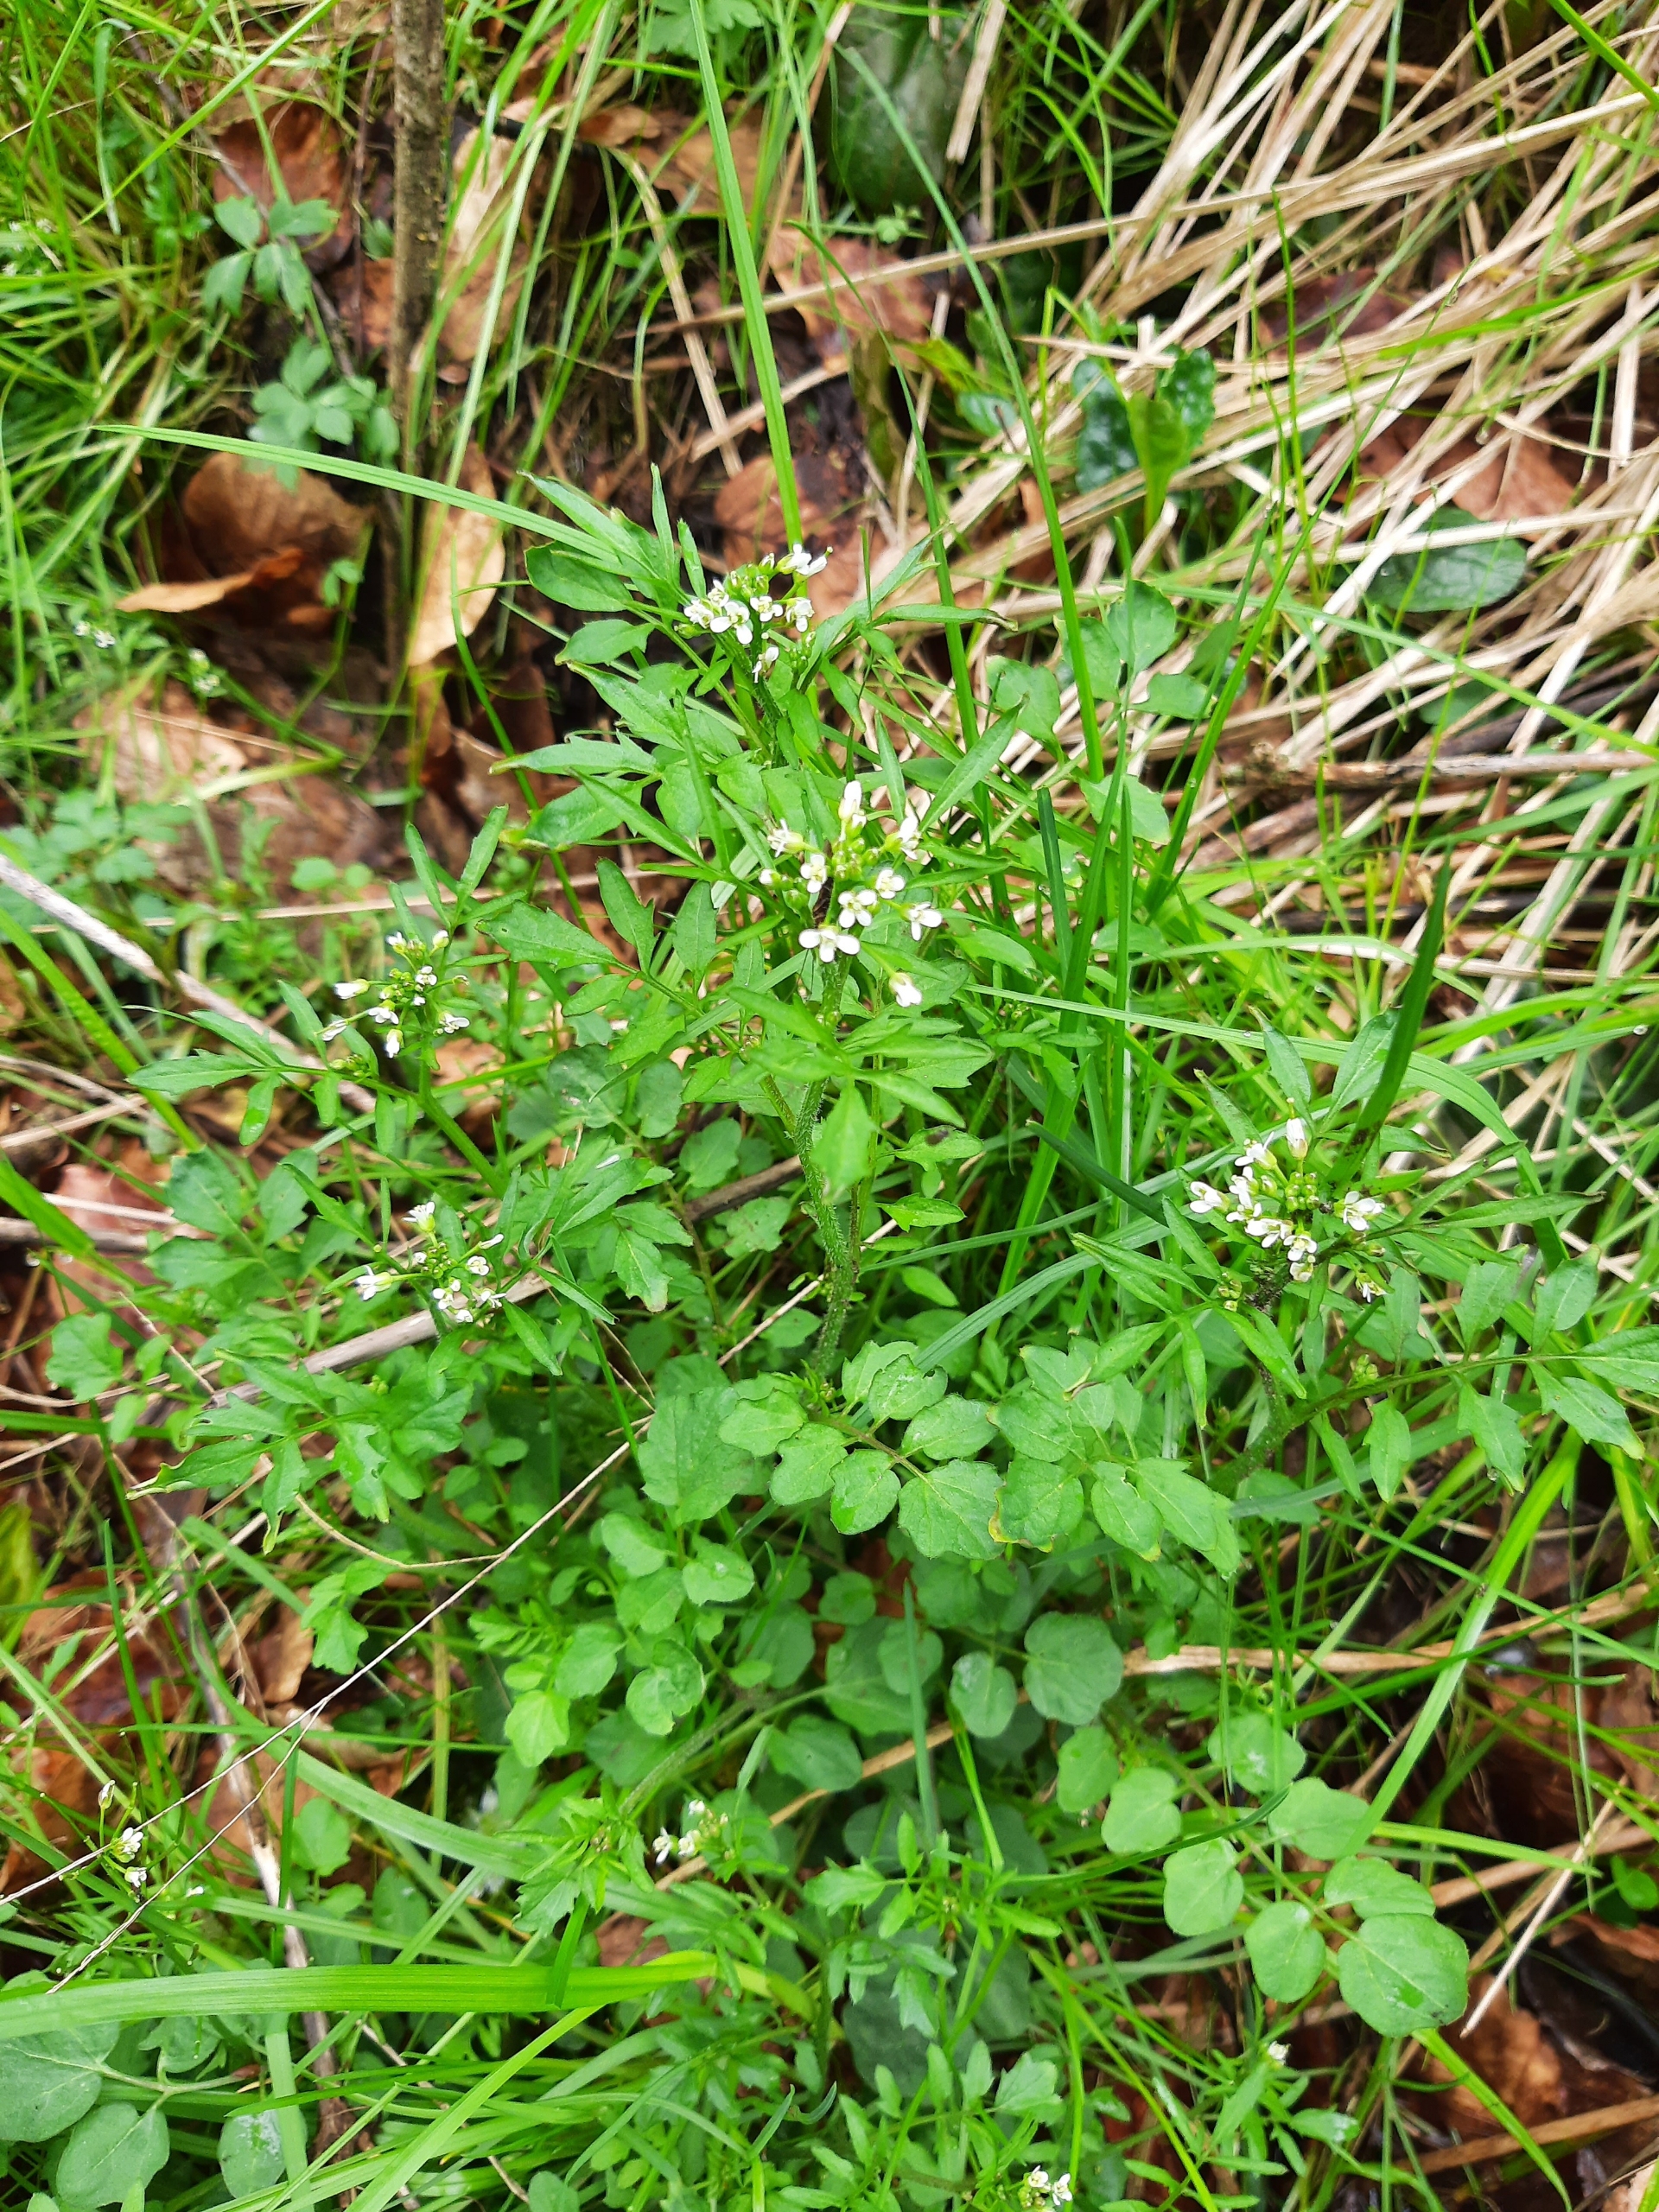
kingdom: Plantae
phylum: Tracheophyta
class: Magnoliopsida
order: Brassicales
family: Brassicaceae
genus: Cardamine
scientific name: Cardamine amara
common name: Vandkarse
